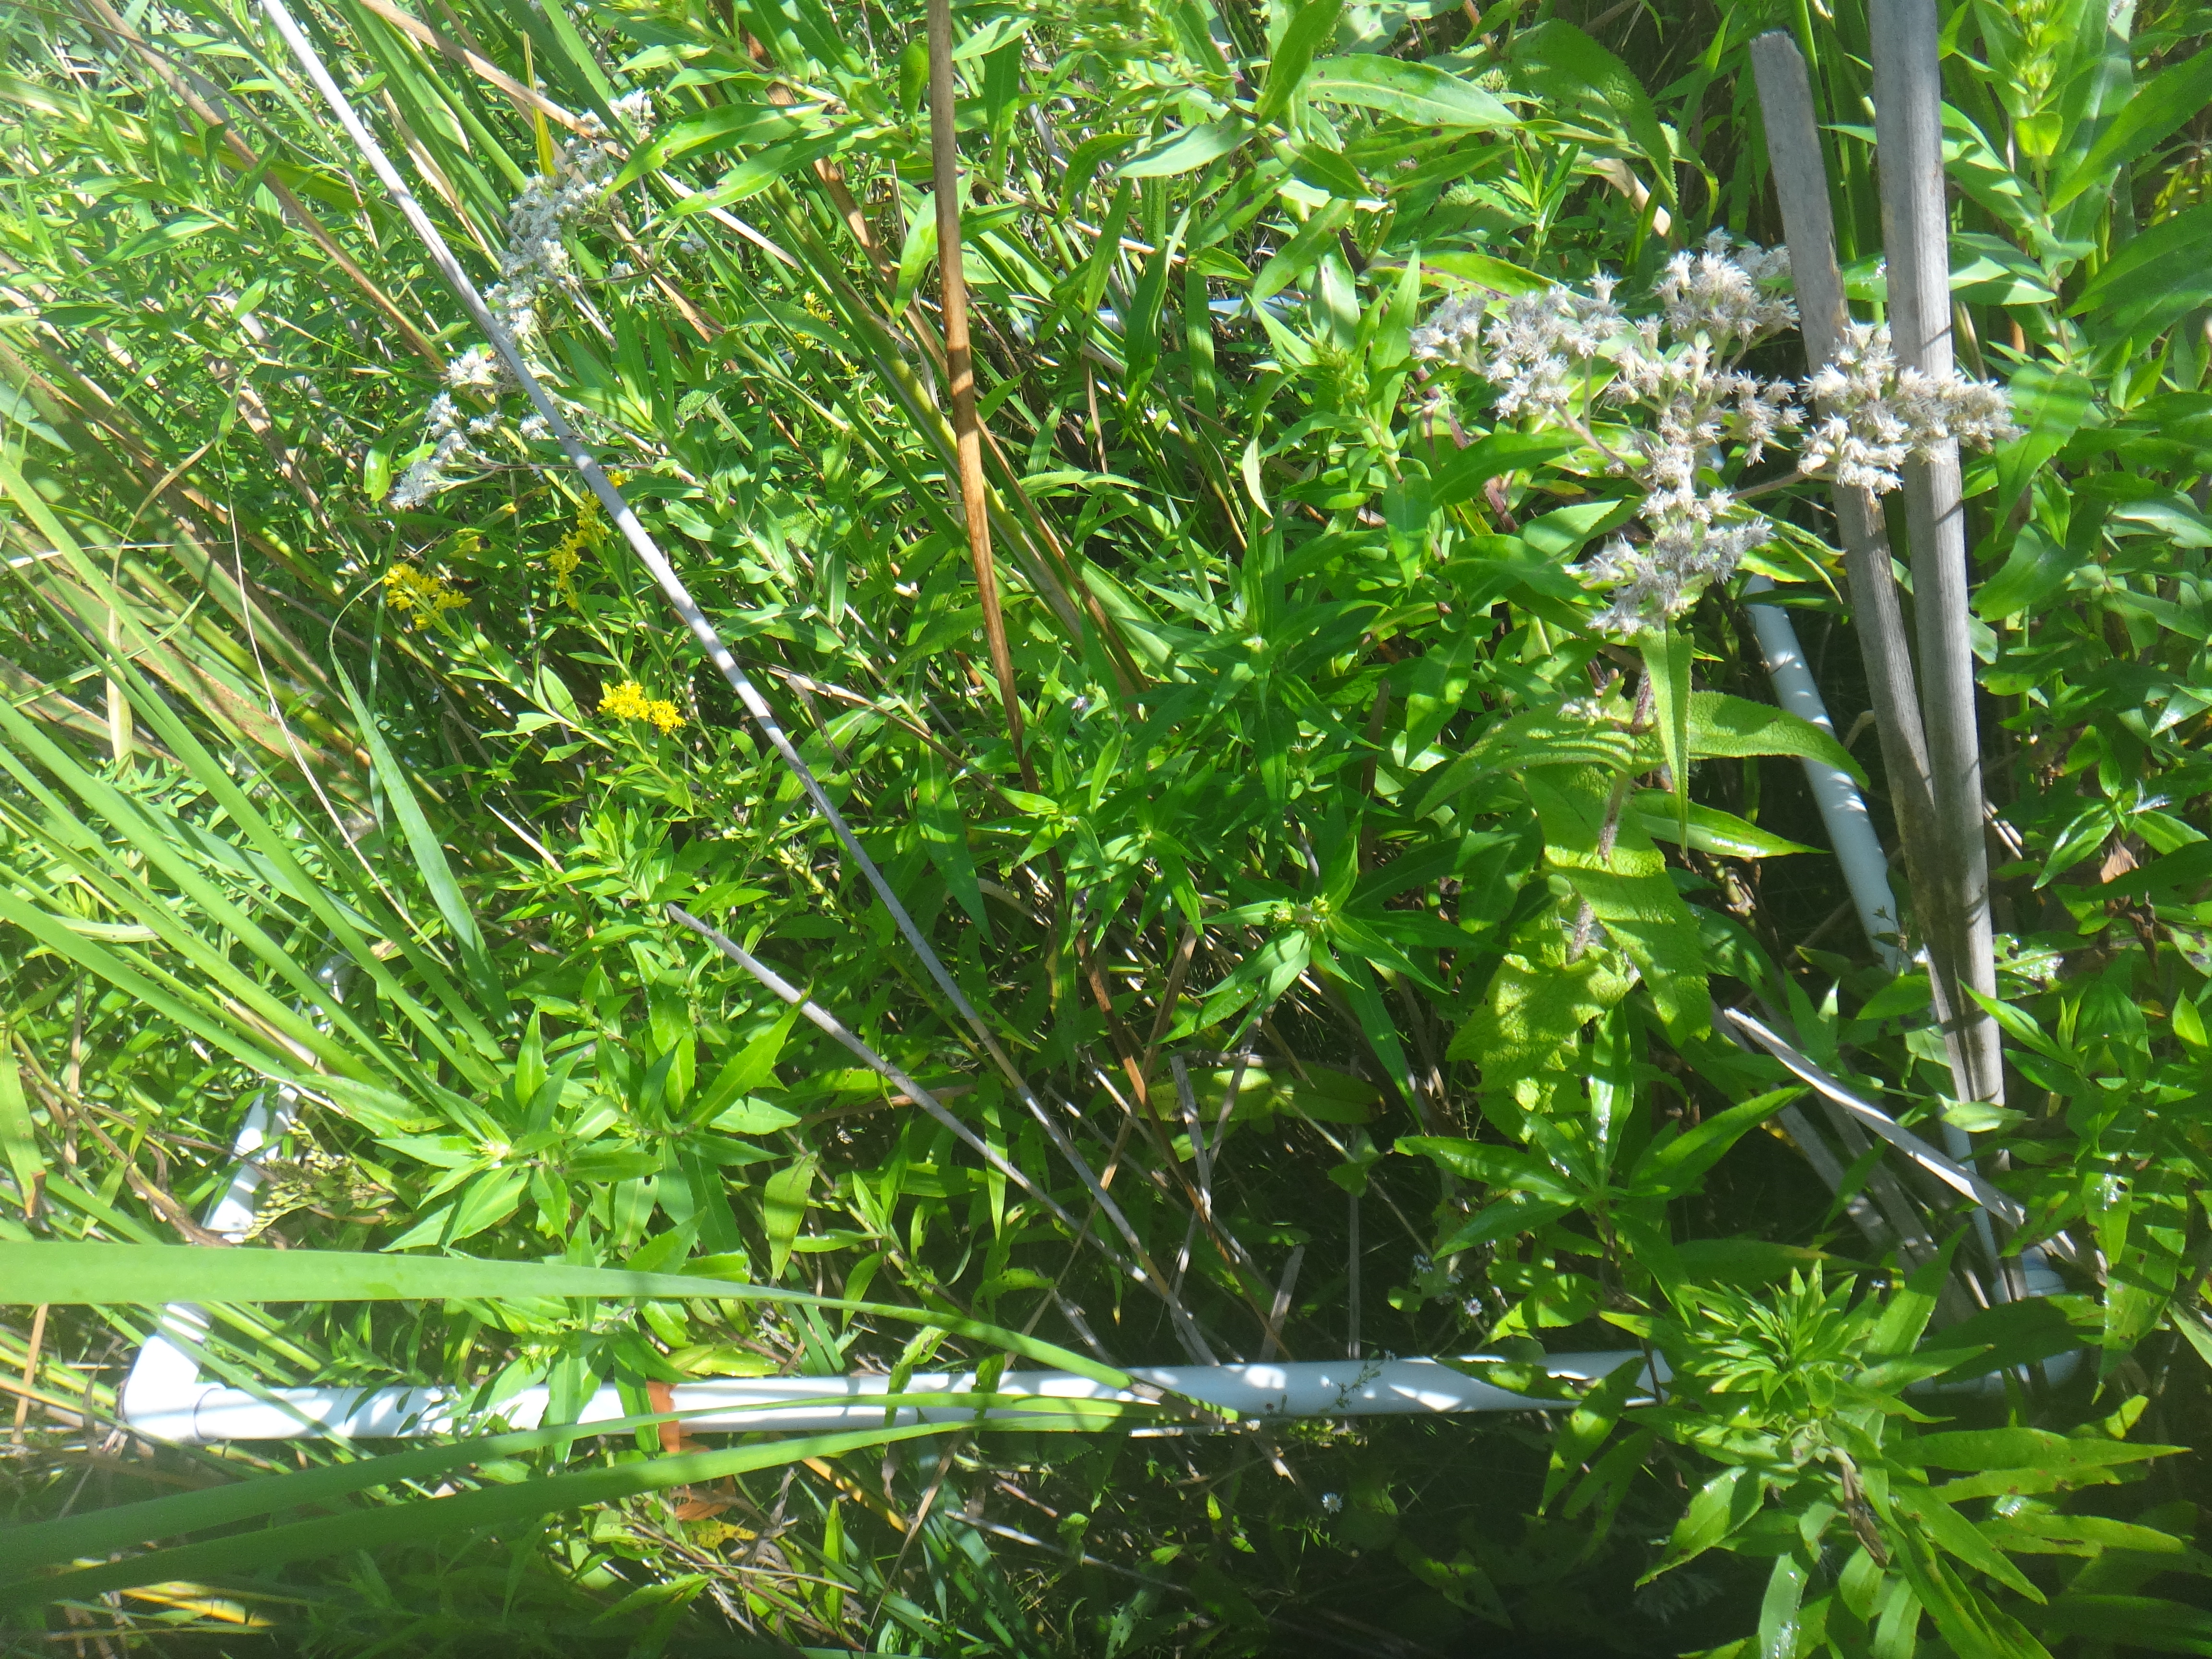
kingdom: Plantae
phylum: Tracheophyta
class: Liliopsida
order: Poales
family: Poaceae
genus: Phragmites
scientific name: Phragmites australis
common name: Common reed
